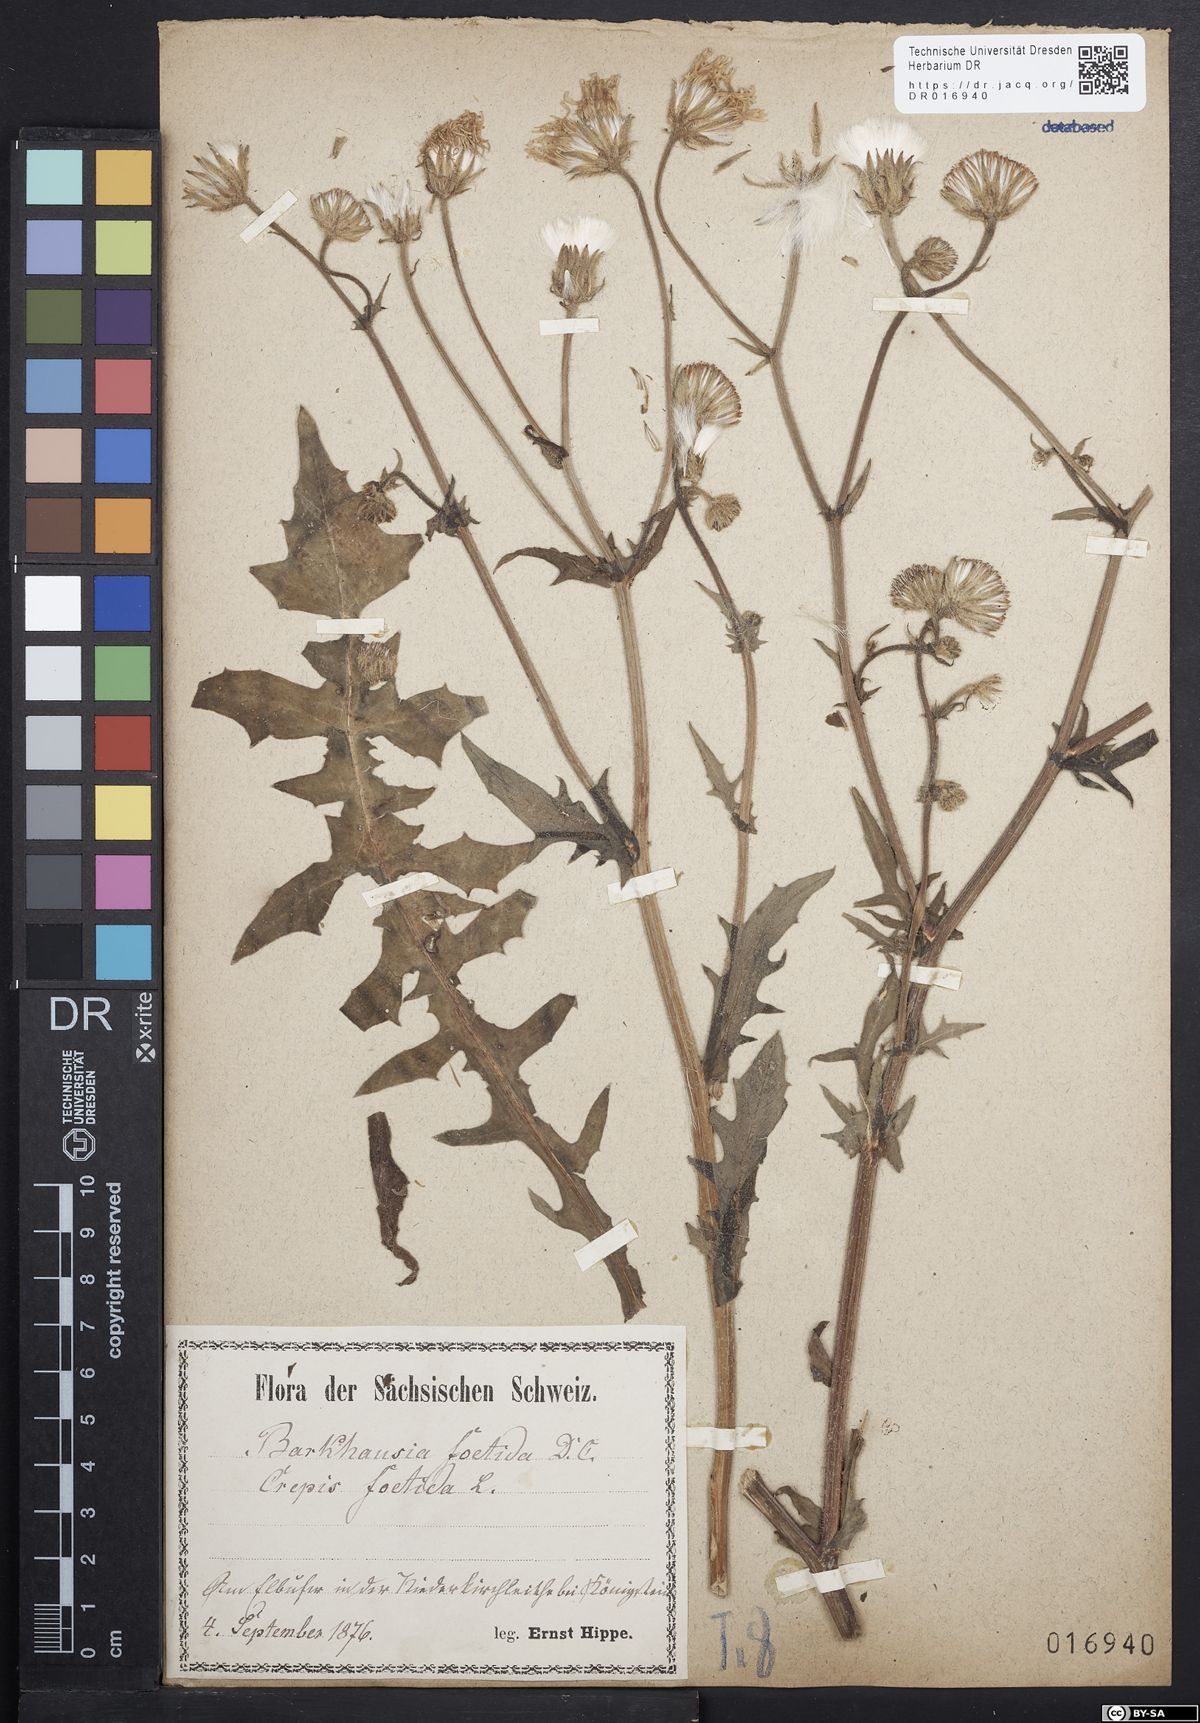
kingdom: Plantae
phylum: Tracheophyta
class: Magnoliopsida
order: Asterales
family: Asteraceae
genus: Crepis
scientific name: Crepis foetida
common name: Stinking hawk's-beard
